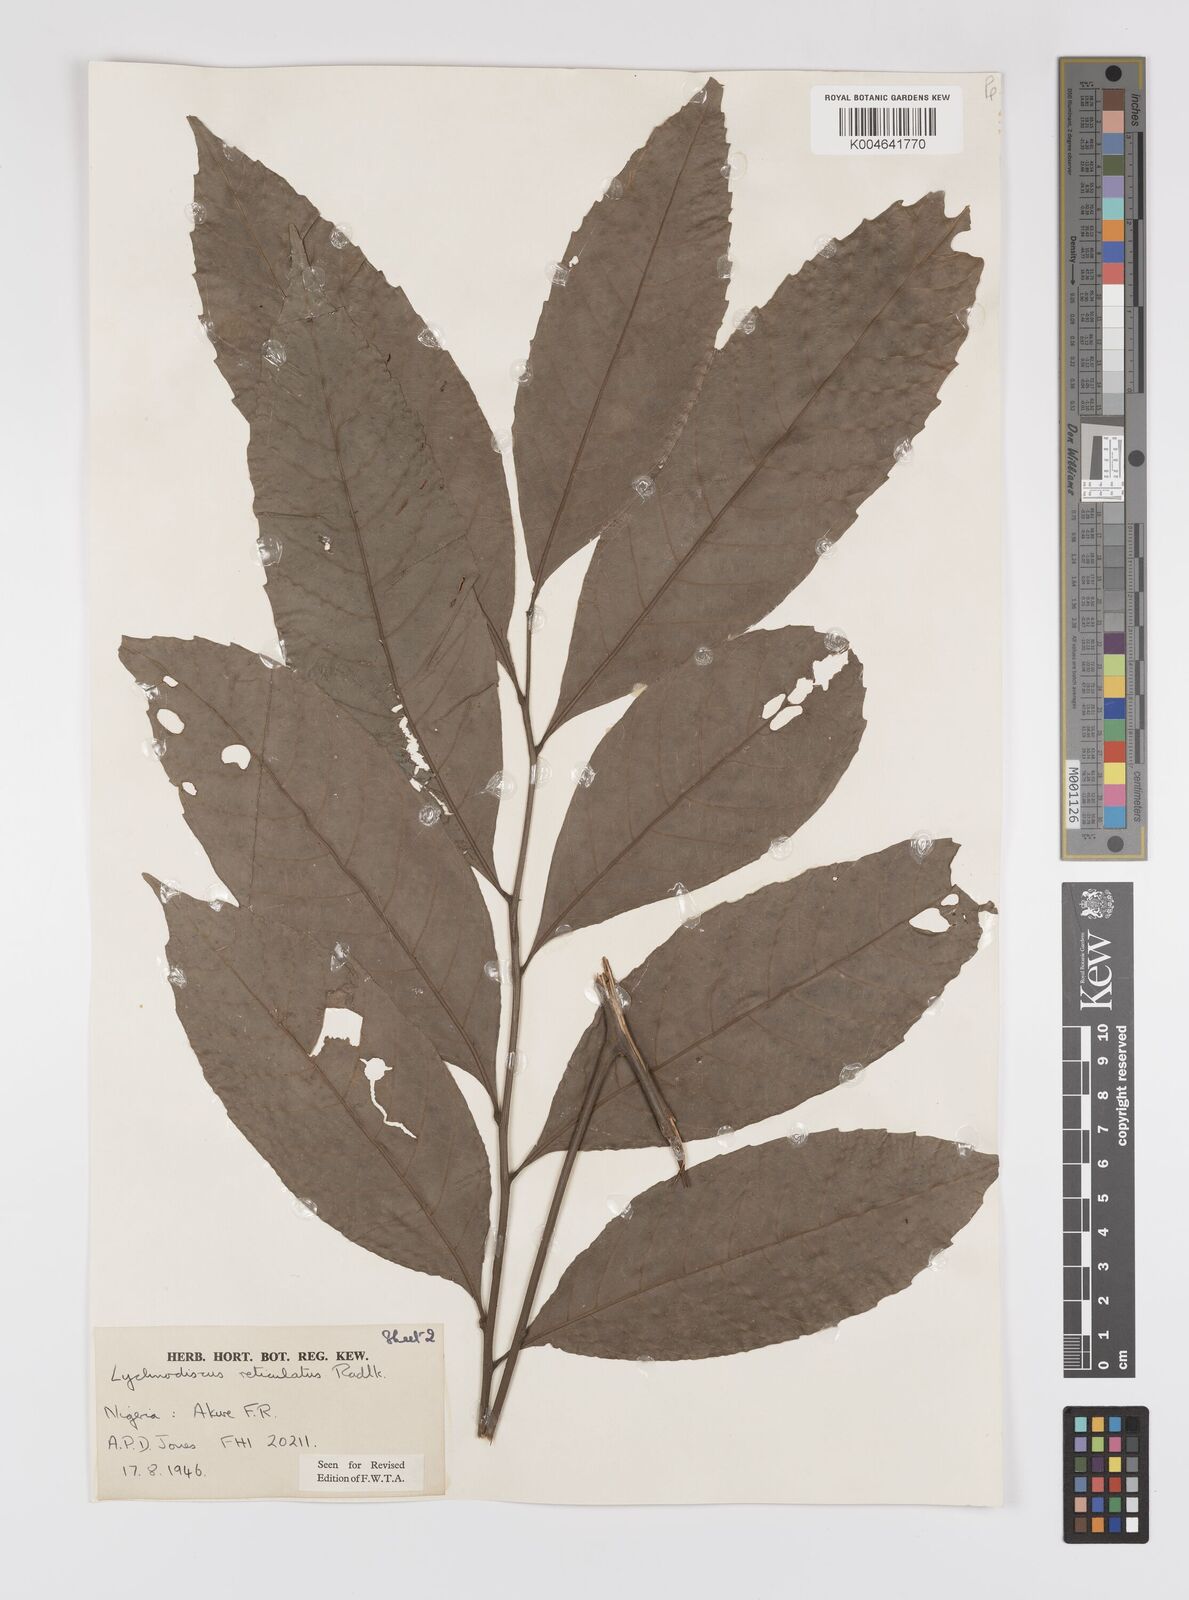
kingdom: Plantae
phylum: Tracheophyta
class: Magnoliopsida
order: Sapindales
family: Sapindaceae
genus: Lychnodiscus
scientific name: Lychnodiscus reticulatus
